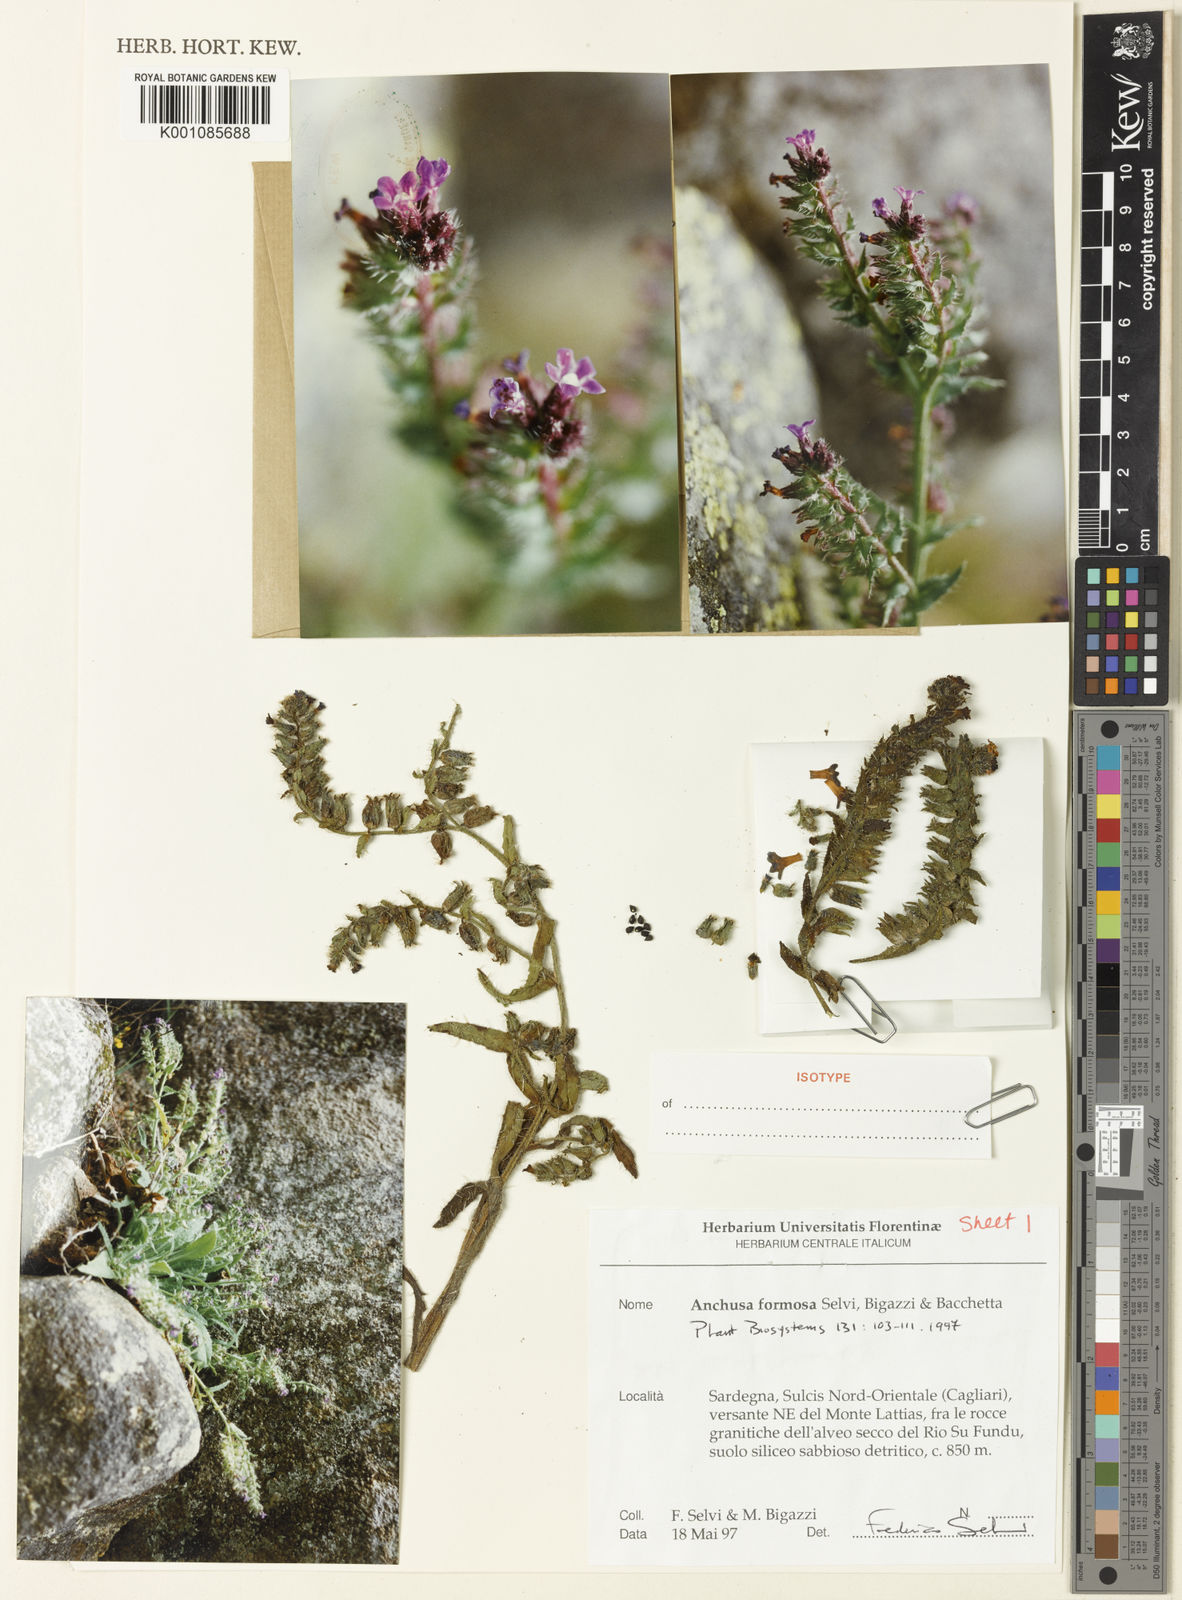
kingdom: Plantae
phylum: Tracheophyta
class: Magnoliopsida
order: Boraginales
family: Boraginaceae
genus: Anchusa
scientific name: Anchusa formosa
